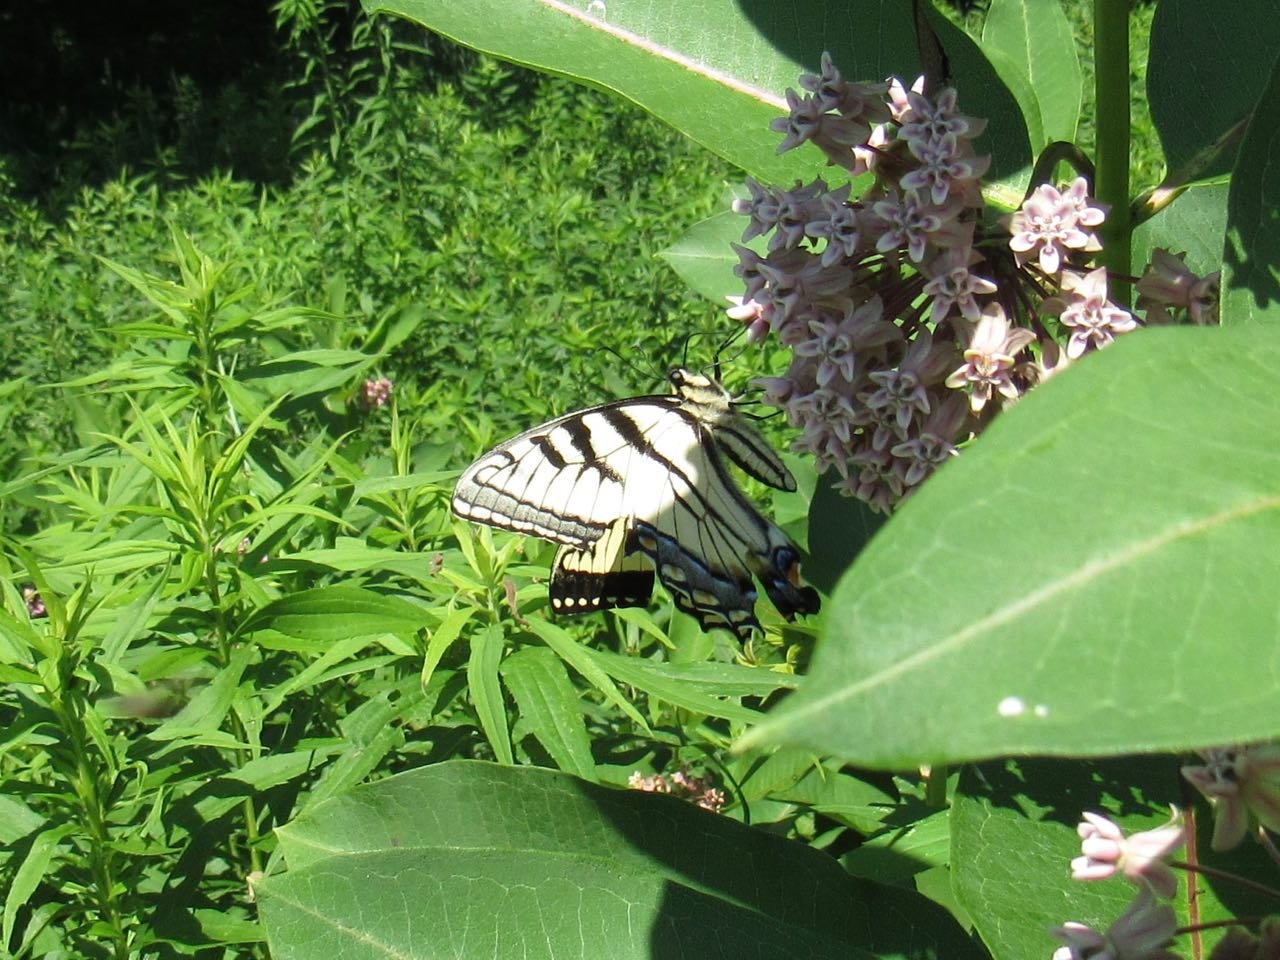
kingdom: Animalia
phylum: Arthropoda
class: Insecta
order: Lepidoptera
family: Papilionidae
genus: Pterourus
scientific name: Pterourus canadensis
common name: Canadian Tiger Swallowtail
